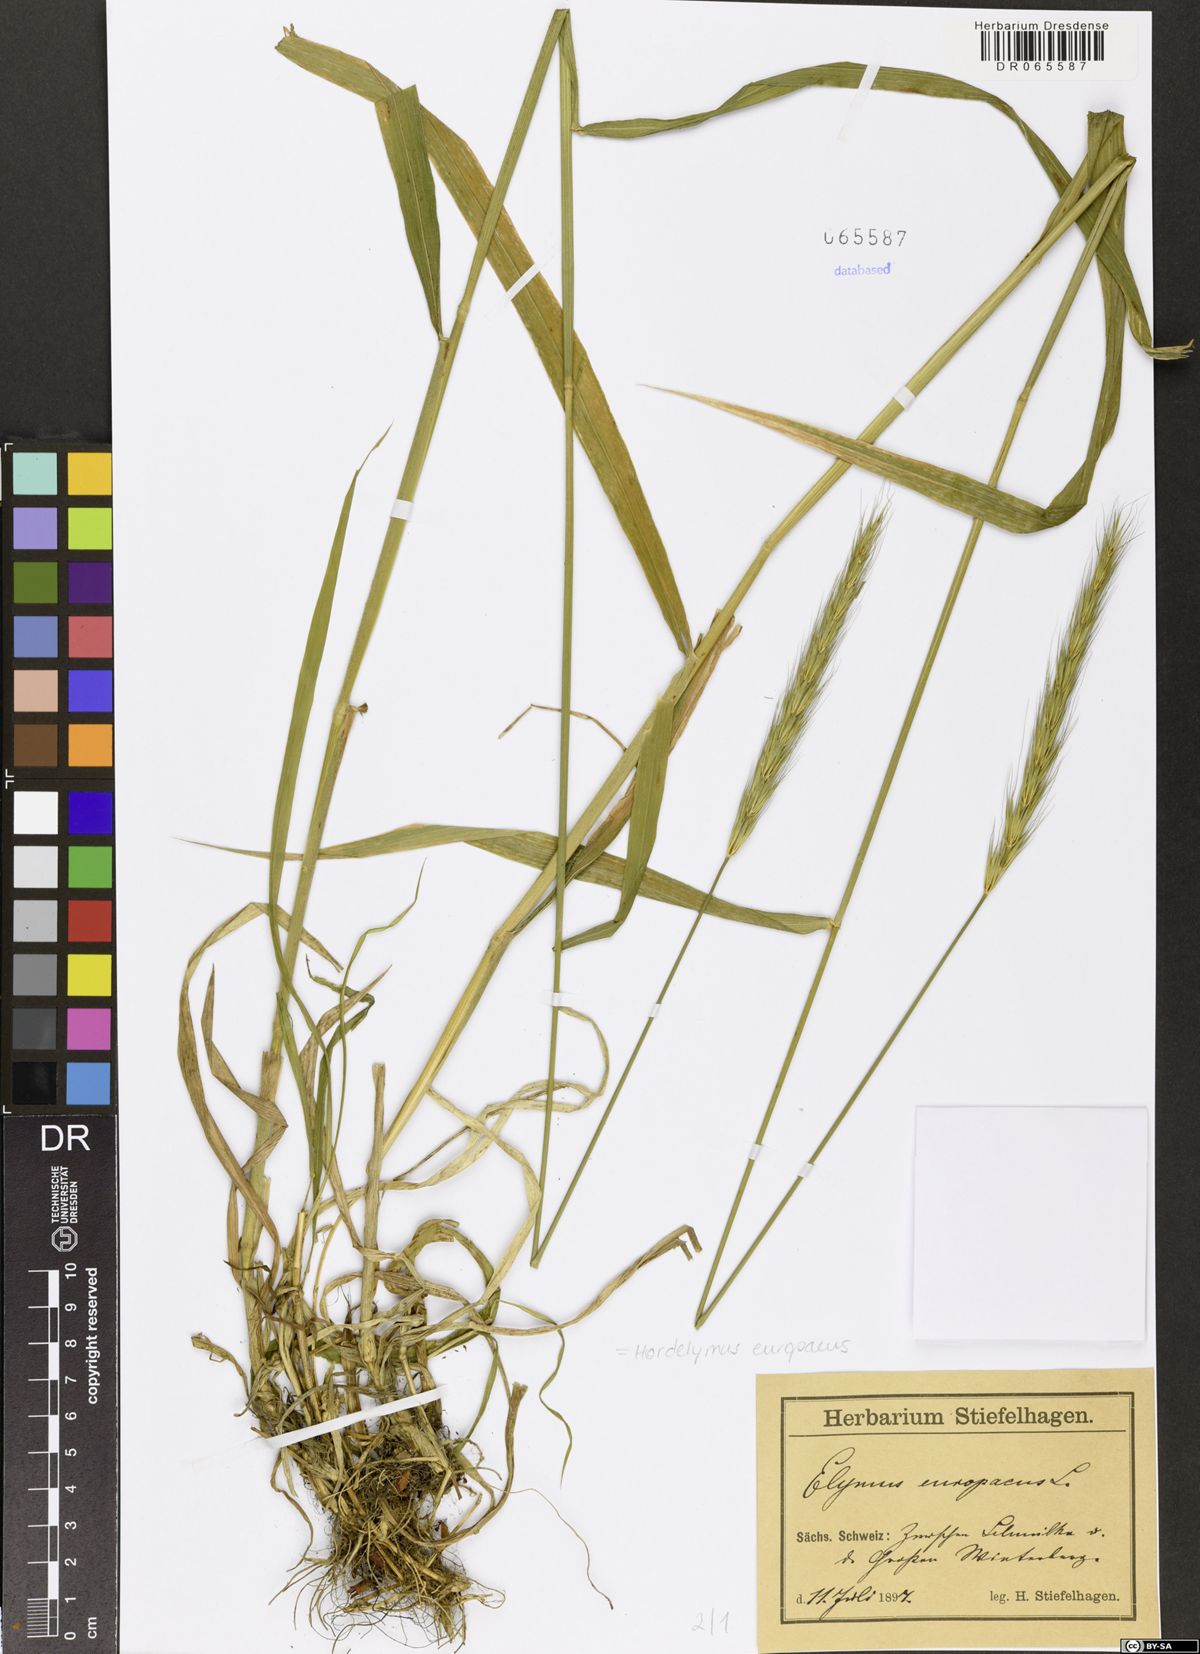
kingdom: Plantae
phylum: Tracheophyta
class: Liliopsida
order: Poales
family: Poaceae
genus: Hordelymus
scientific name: Hordelymus europaeus
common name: Wood-barley
